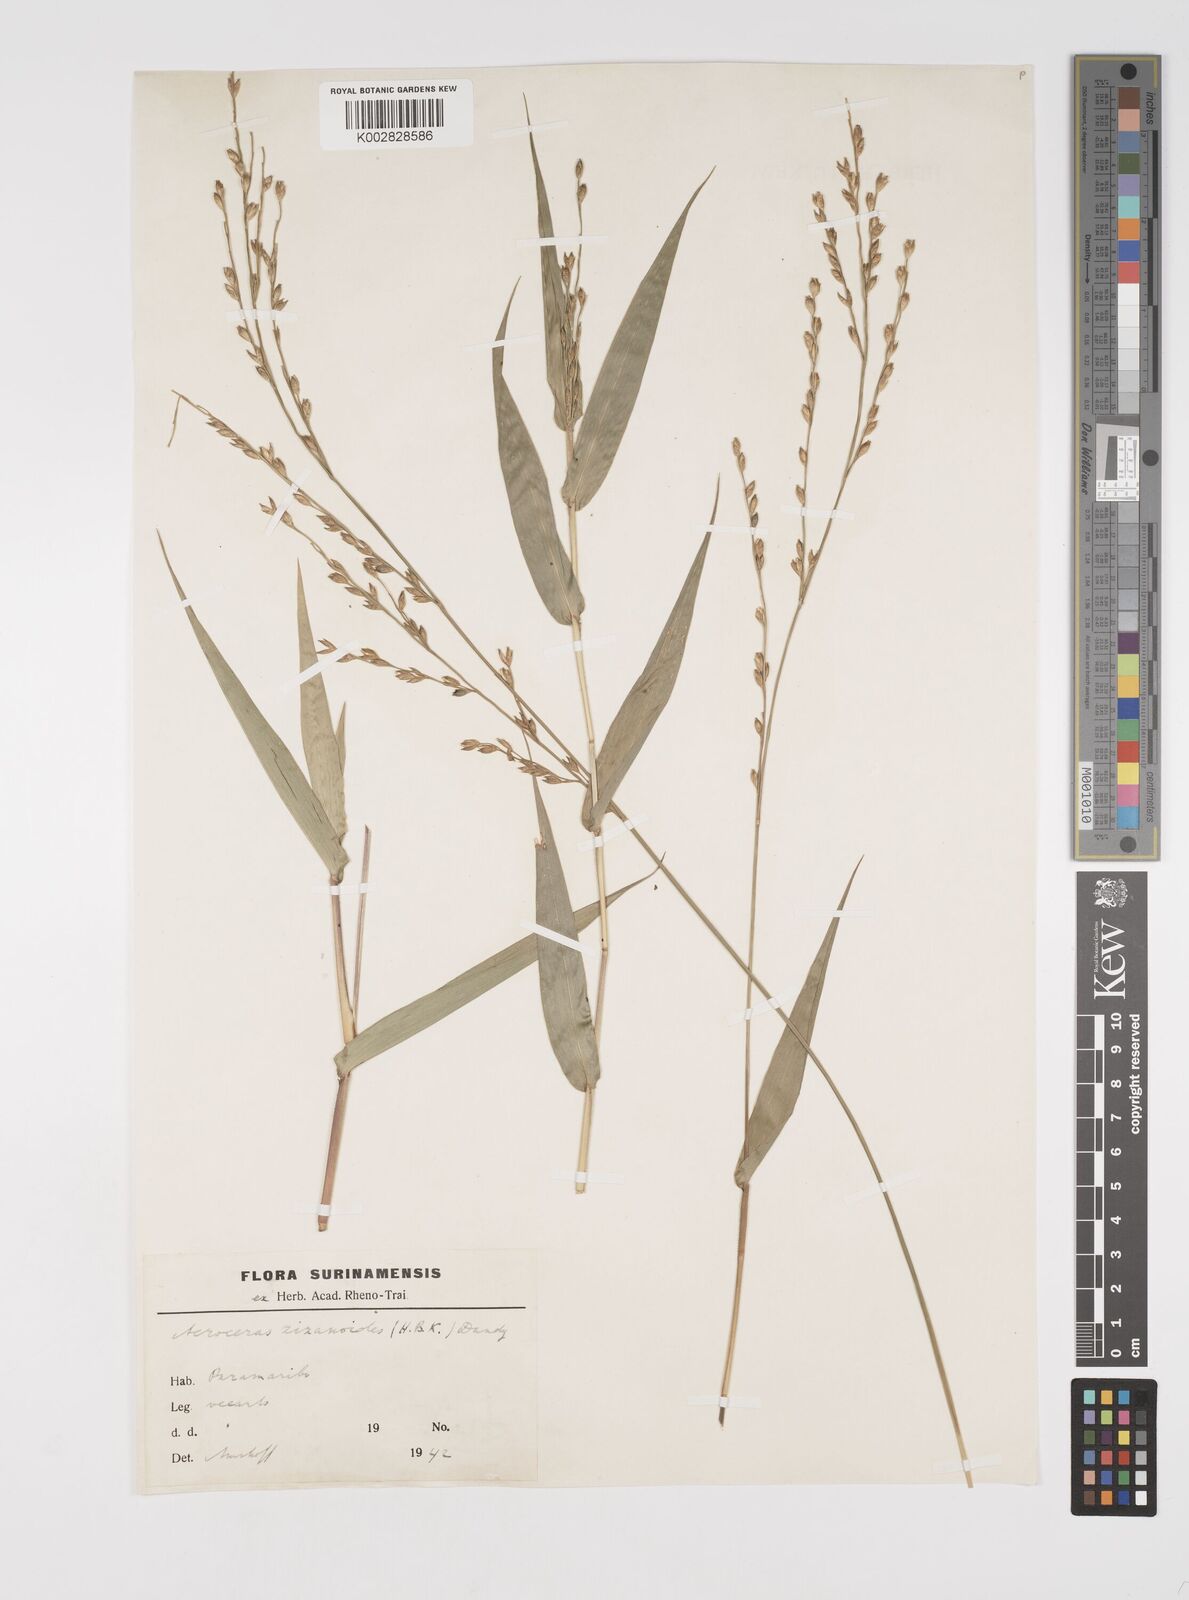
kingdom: Plantae
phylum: Tracheophyta
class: Liliopsida
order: Poales
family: Poaceae
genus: Acroceras
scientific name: Acroceras zizanioides
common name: Oat grass
